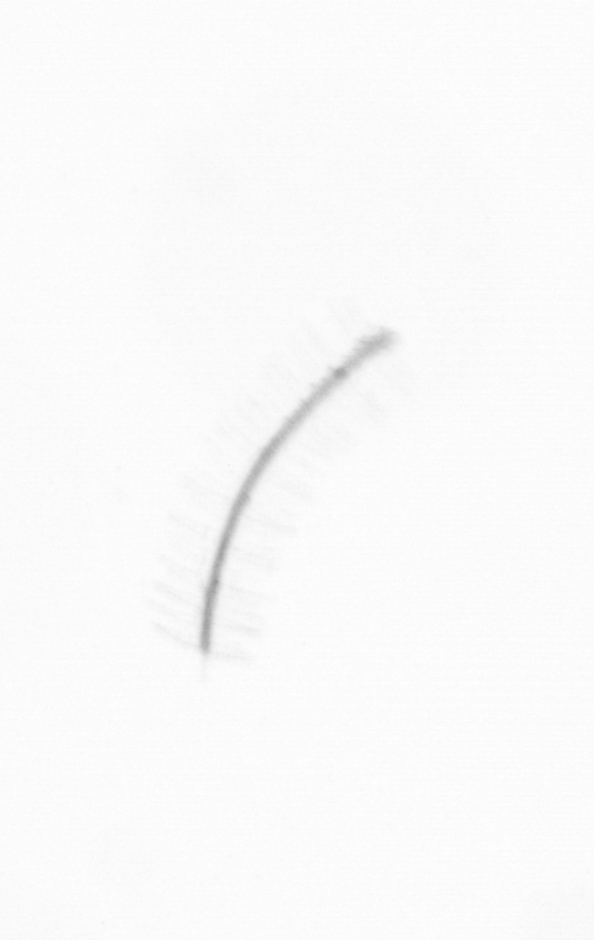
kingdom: Chromista
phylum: Ochrophyta
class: Bacillariophyceae
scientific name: Bacillariophyceae
